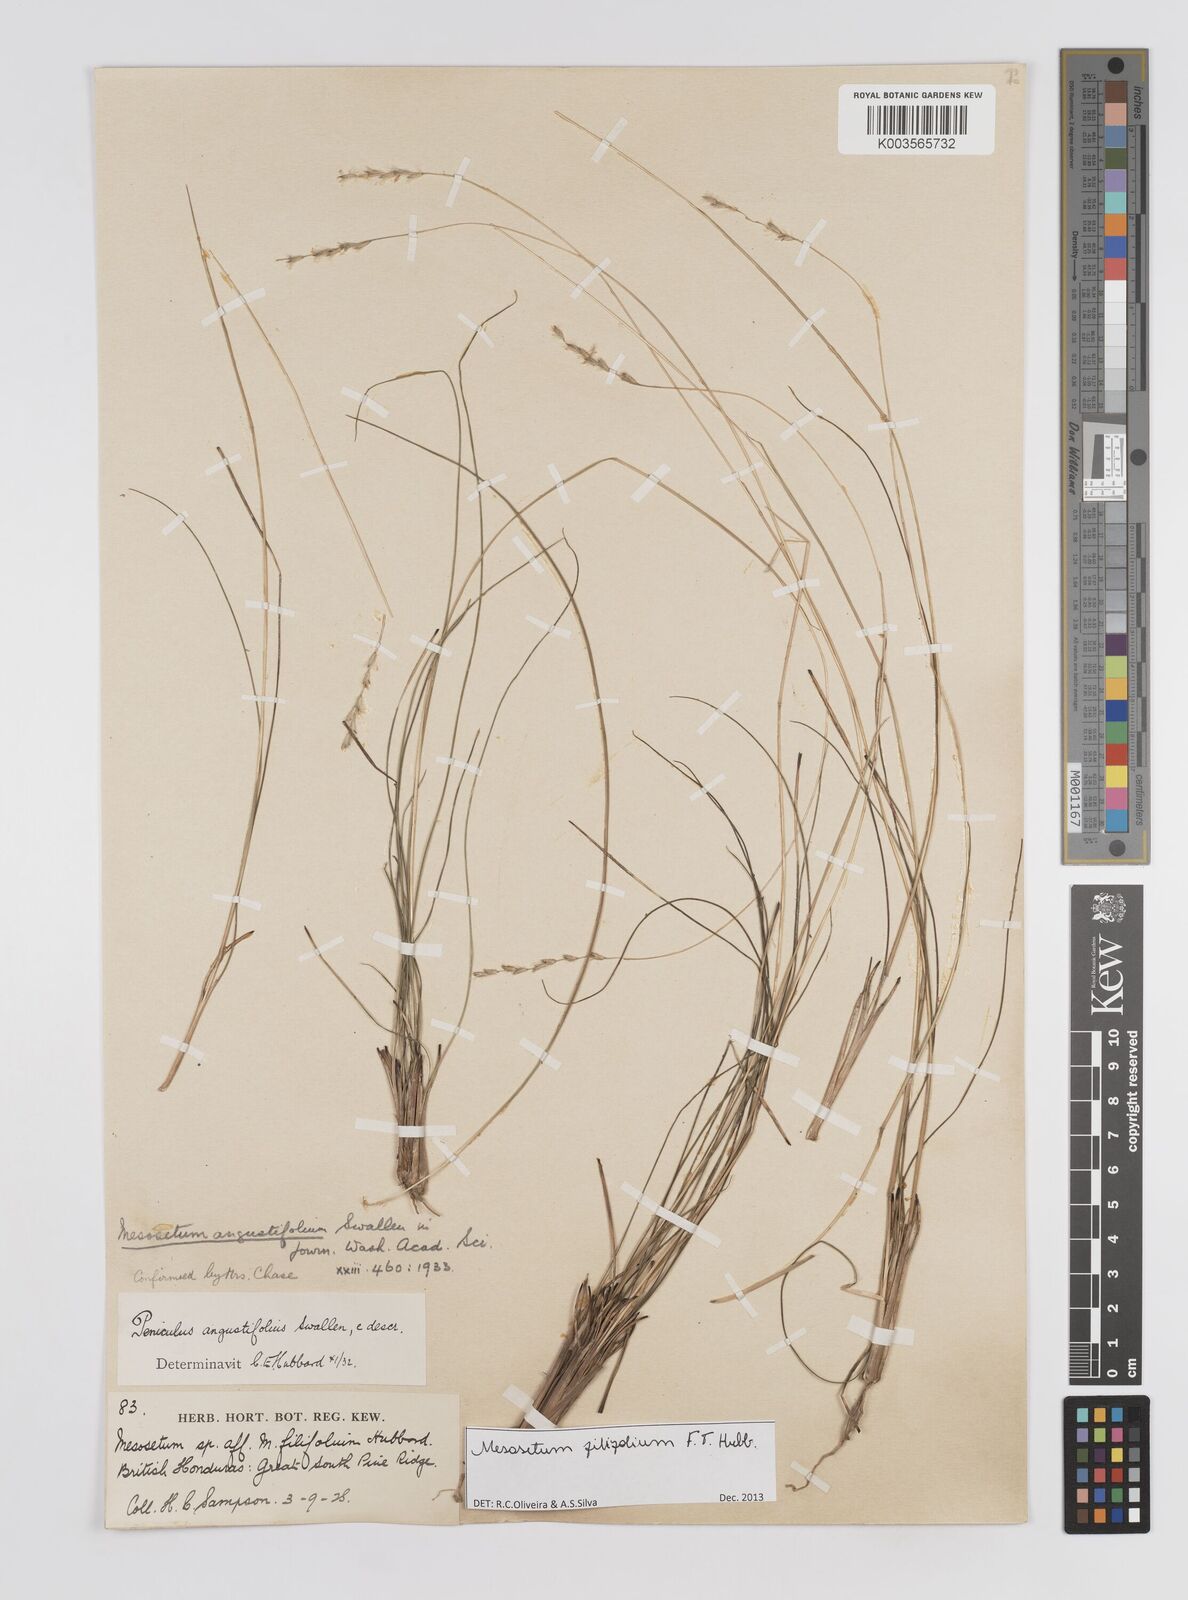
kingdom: Plantae
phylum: Tracheophyta
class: Liliopsida
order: Poales
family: Poaceae
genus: Mesosetum
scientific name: Mesosetum filifolium
